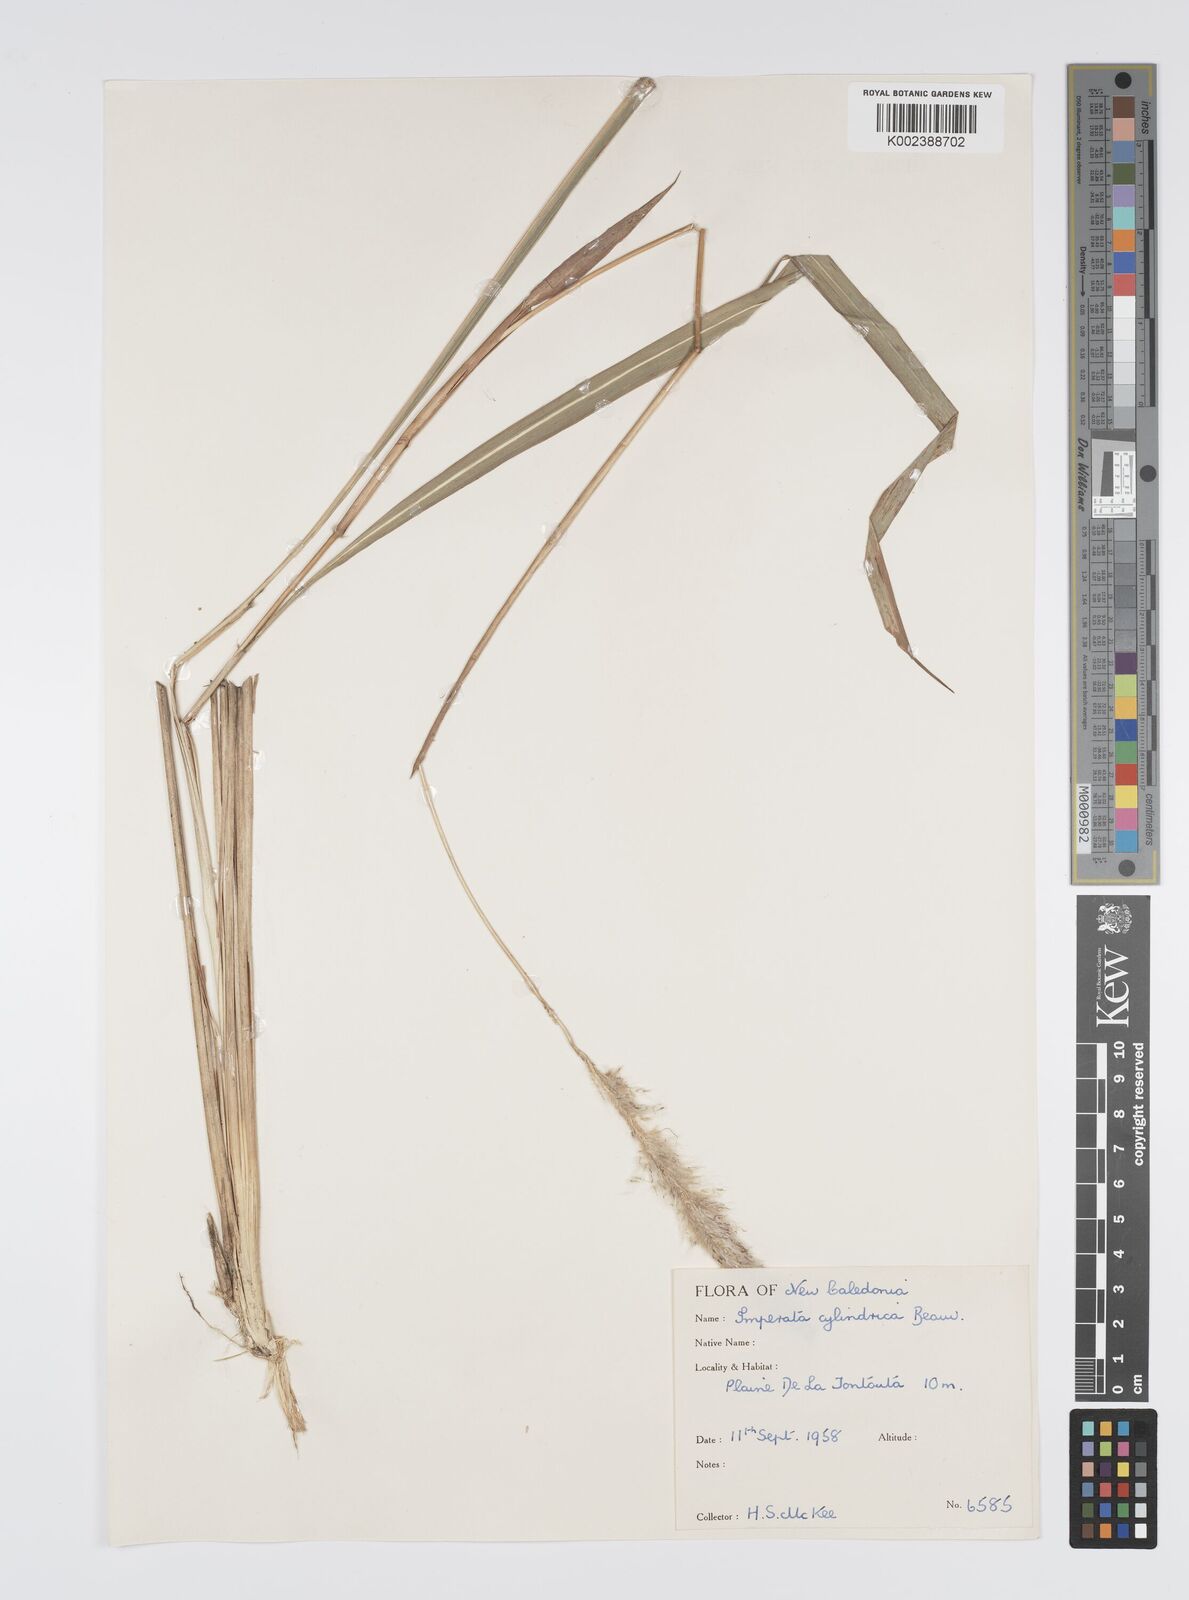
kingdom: Plantae
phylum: Tracheophyta
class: Liliopsida
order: Poales
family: Poaceae
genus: Imperata
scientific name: Imperata cylindrica
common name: Cogongrass
